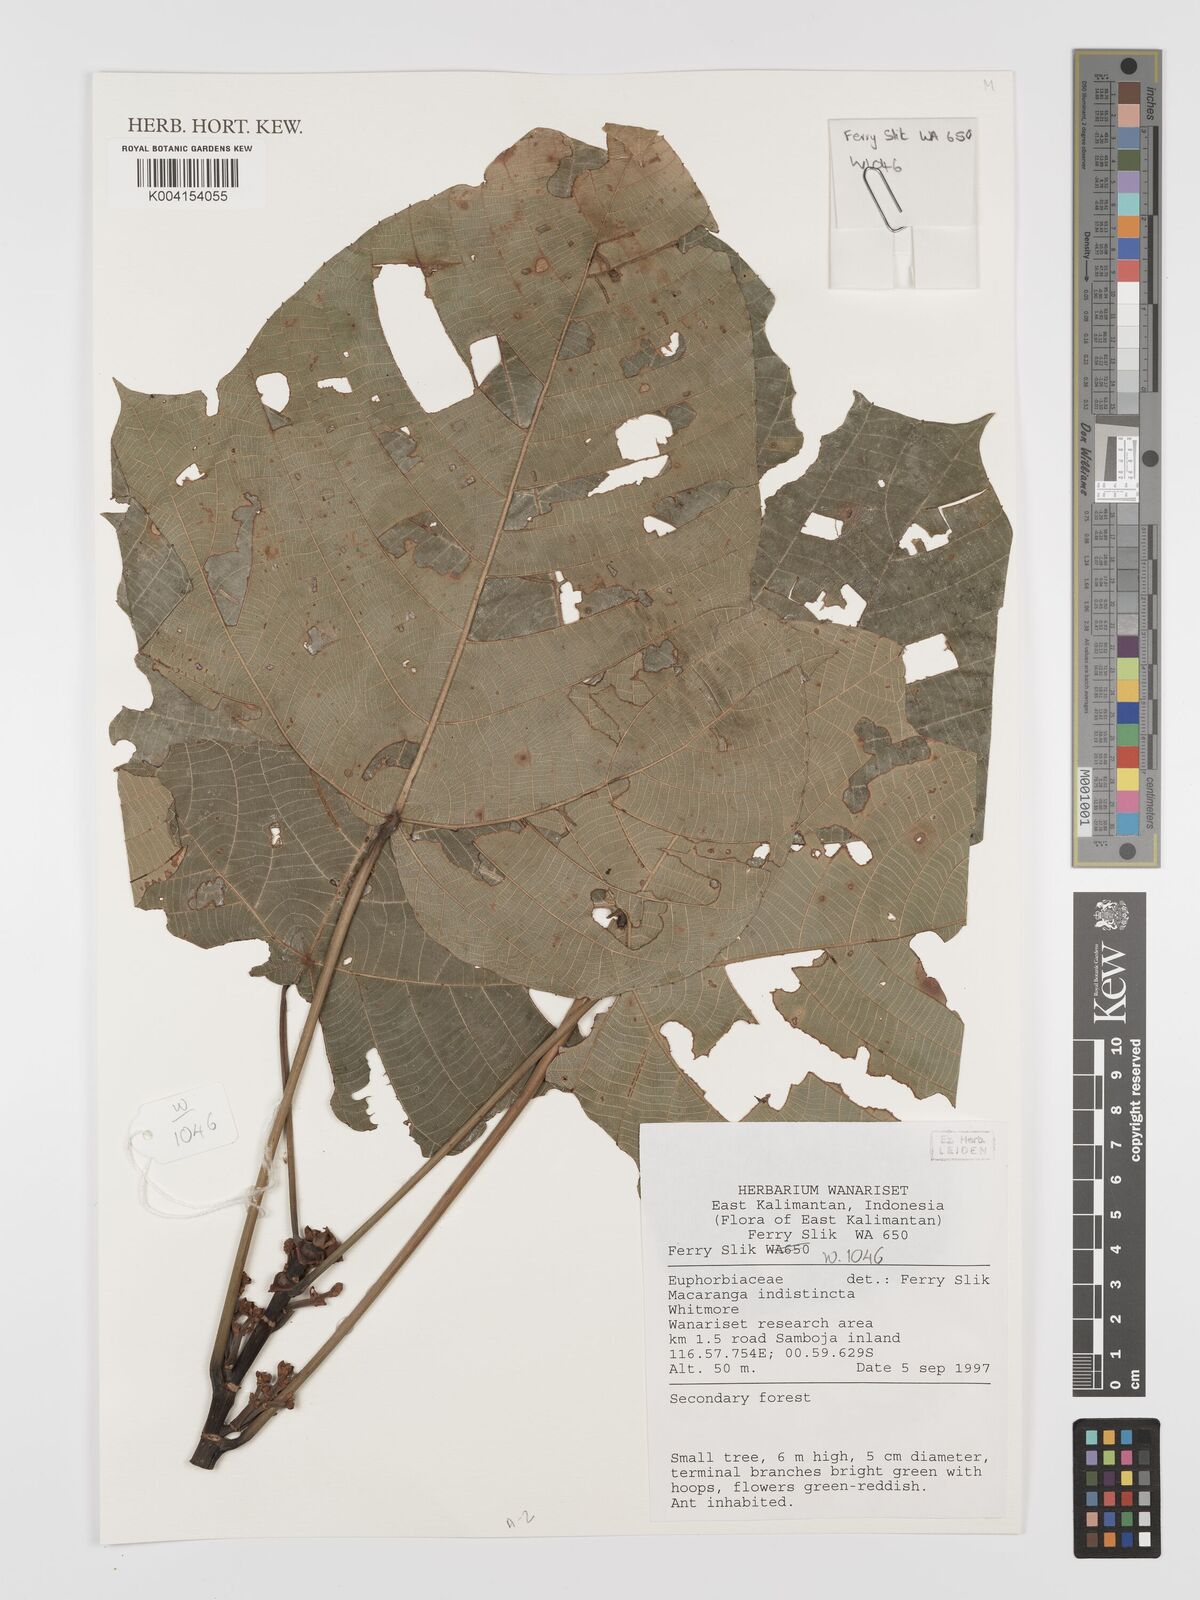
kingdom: Plantae
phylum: Tracheophyta
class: Magnoliopsida
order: Malpighiales
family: Euphorbiaceae
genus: Macaranga
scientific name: Macaranga indistincta
